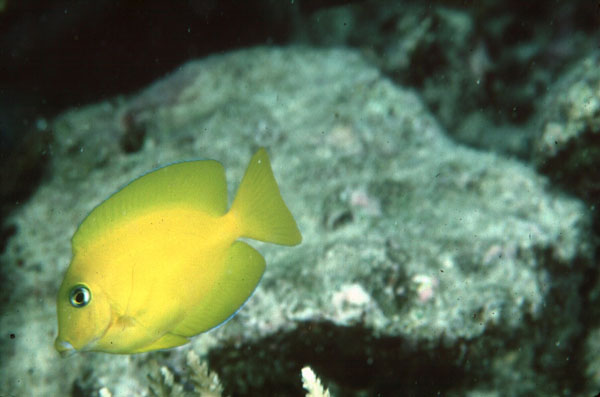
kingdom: Animalia
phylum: Chordata
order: Perciformes
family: Acanthuridae
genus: Ctenochaetus
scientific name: Ctenochaetus truncatus
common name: Indian gold-ring bristle-tooth
